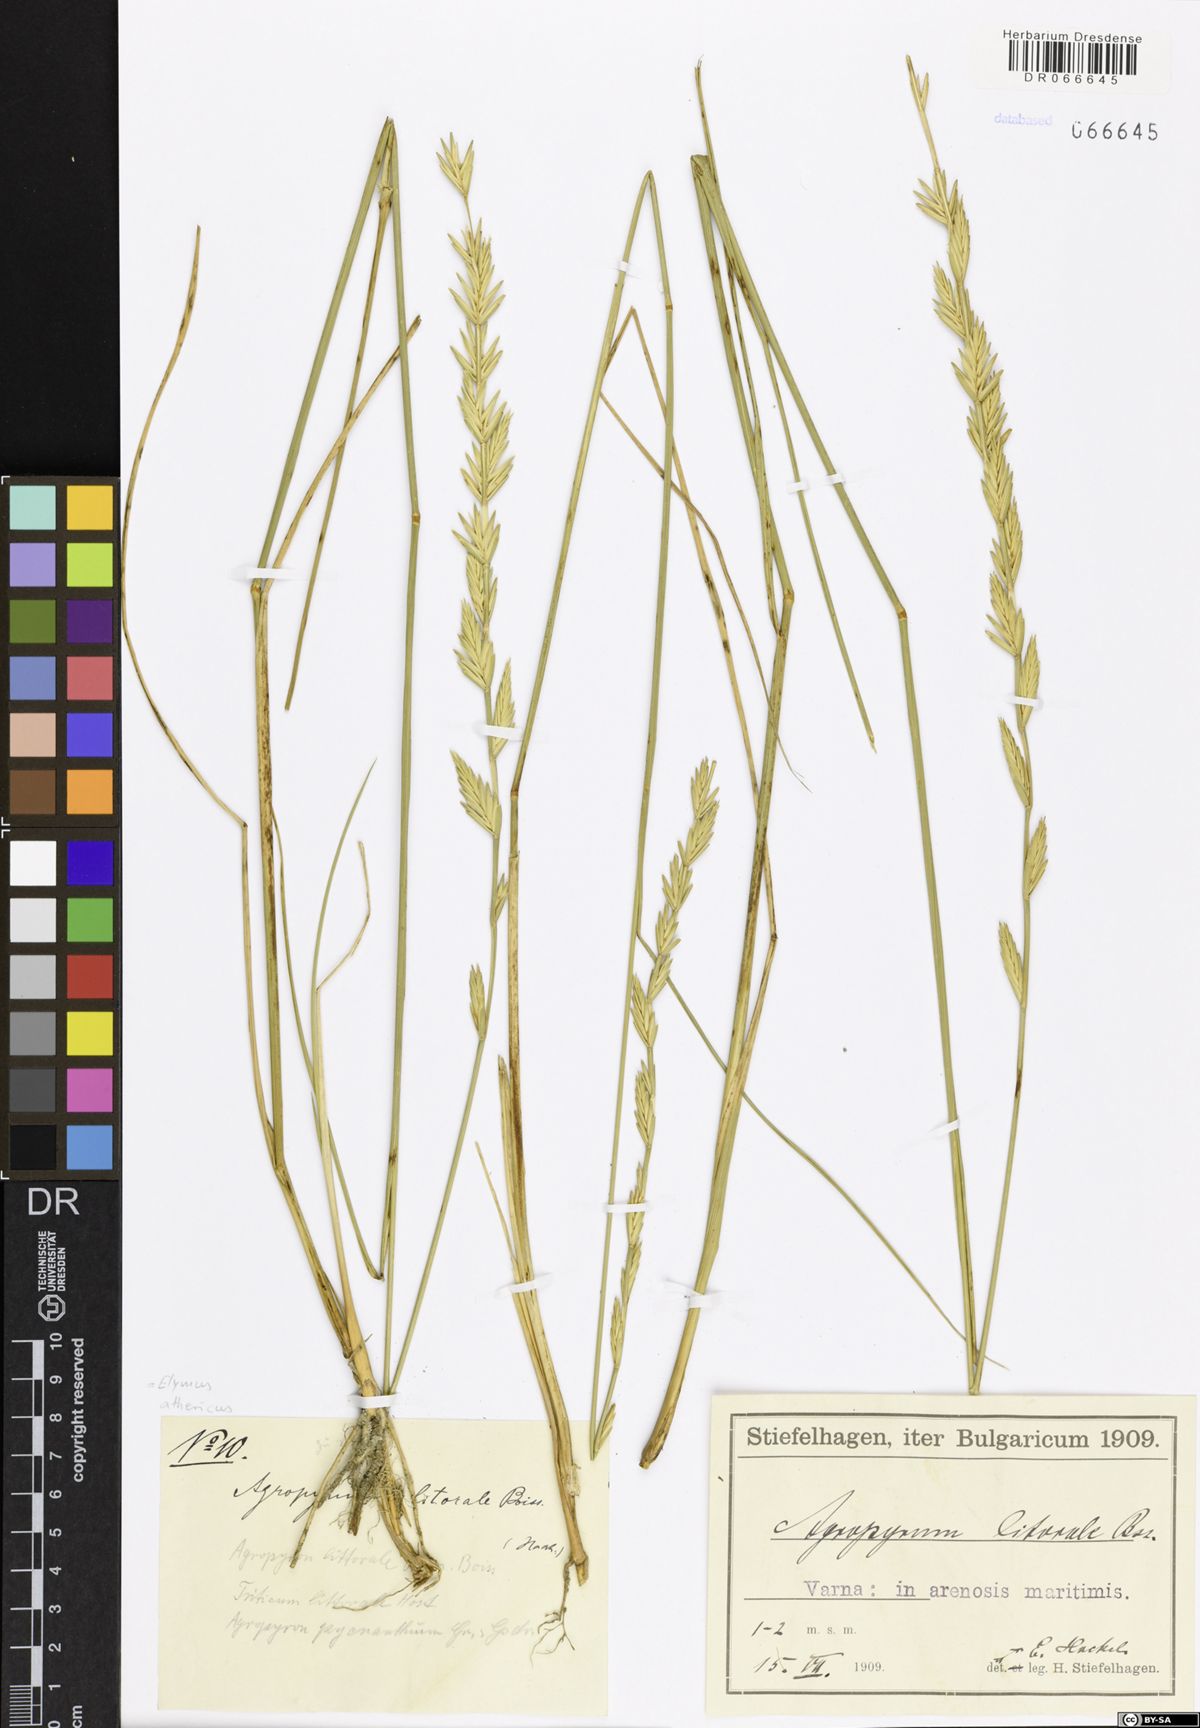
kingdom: Plantae
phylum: Tracheophyta
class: Liliopsida
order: Poales
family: Poaceae
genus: Elymus
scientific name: Elymus athericus
